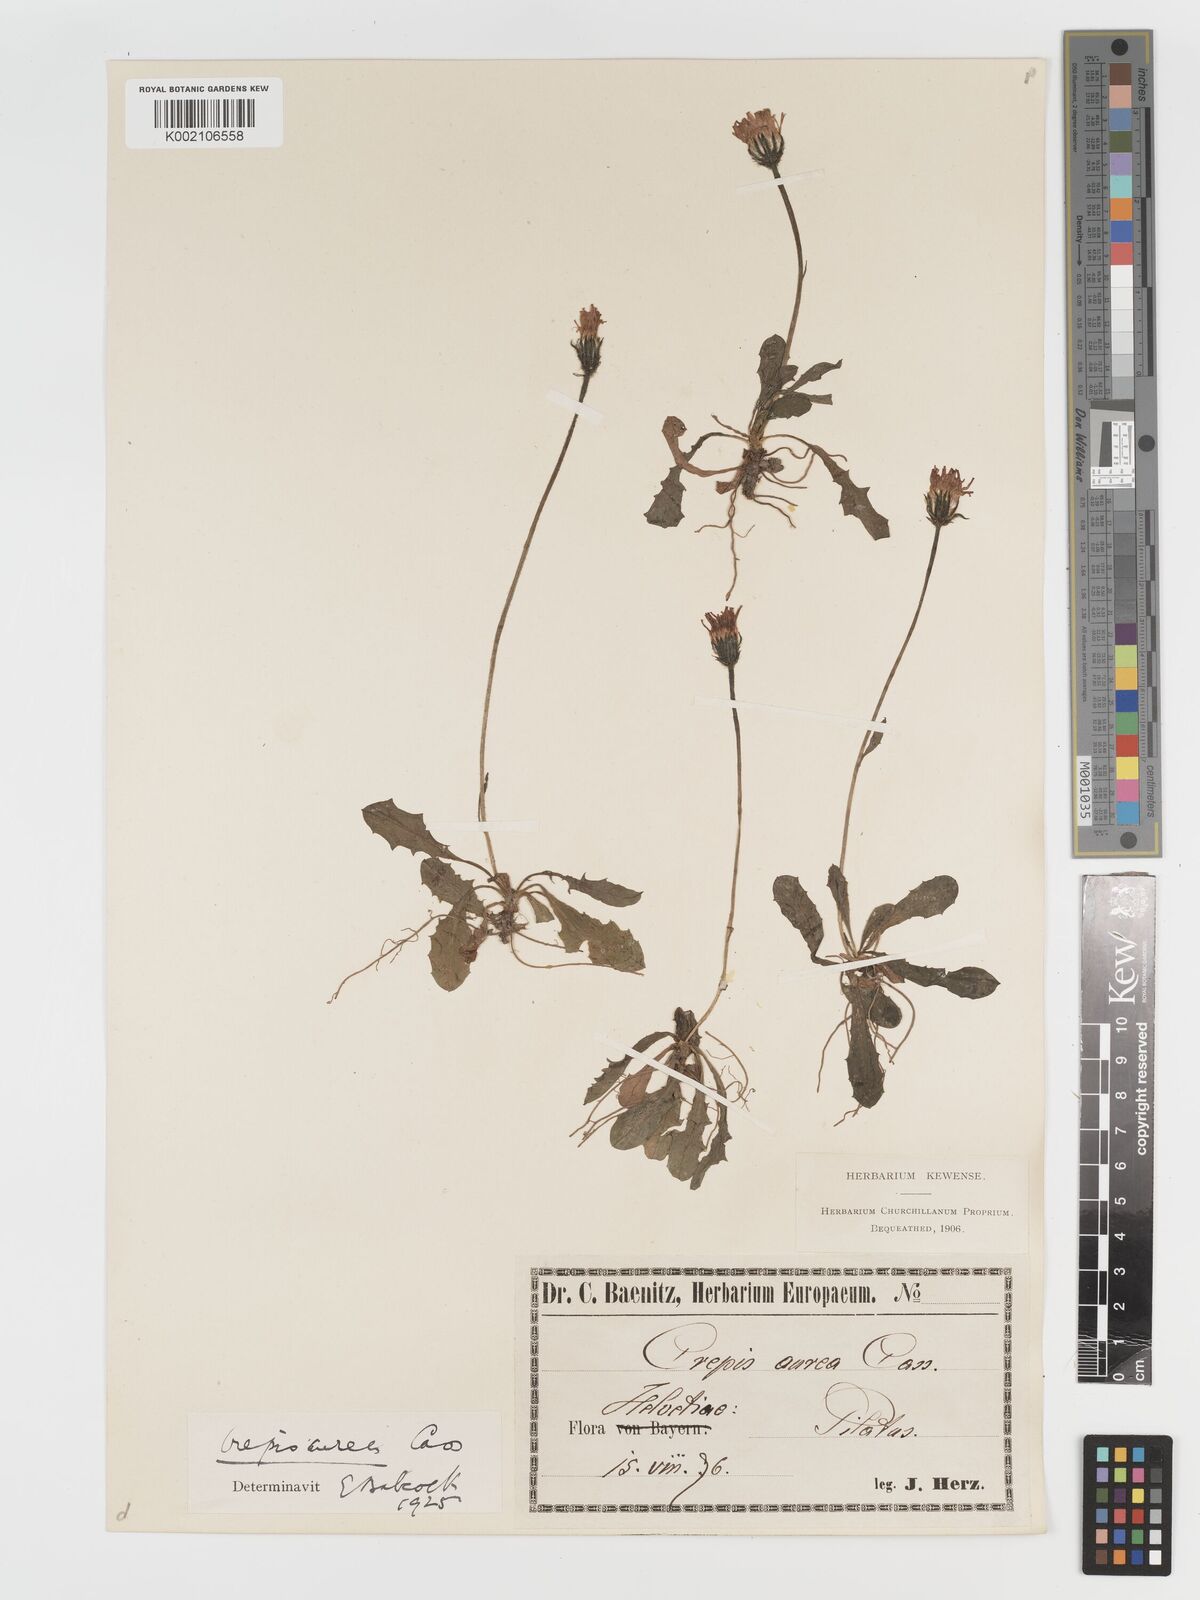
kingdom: Plantae
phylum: Tracheophyta
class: Magnoliopsida
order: Asterales
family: Asteraceae
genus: Crepis
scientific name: Crepis aurea
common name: Golden hawk's-beard
